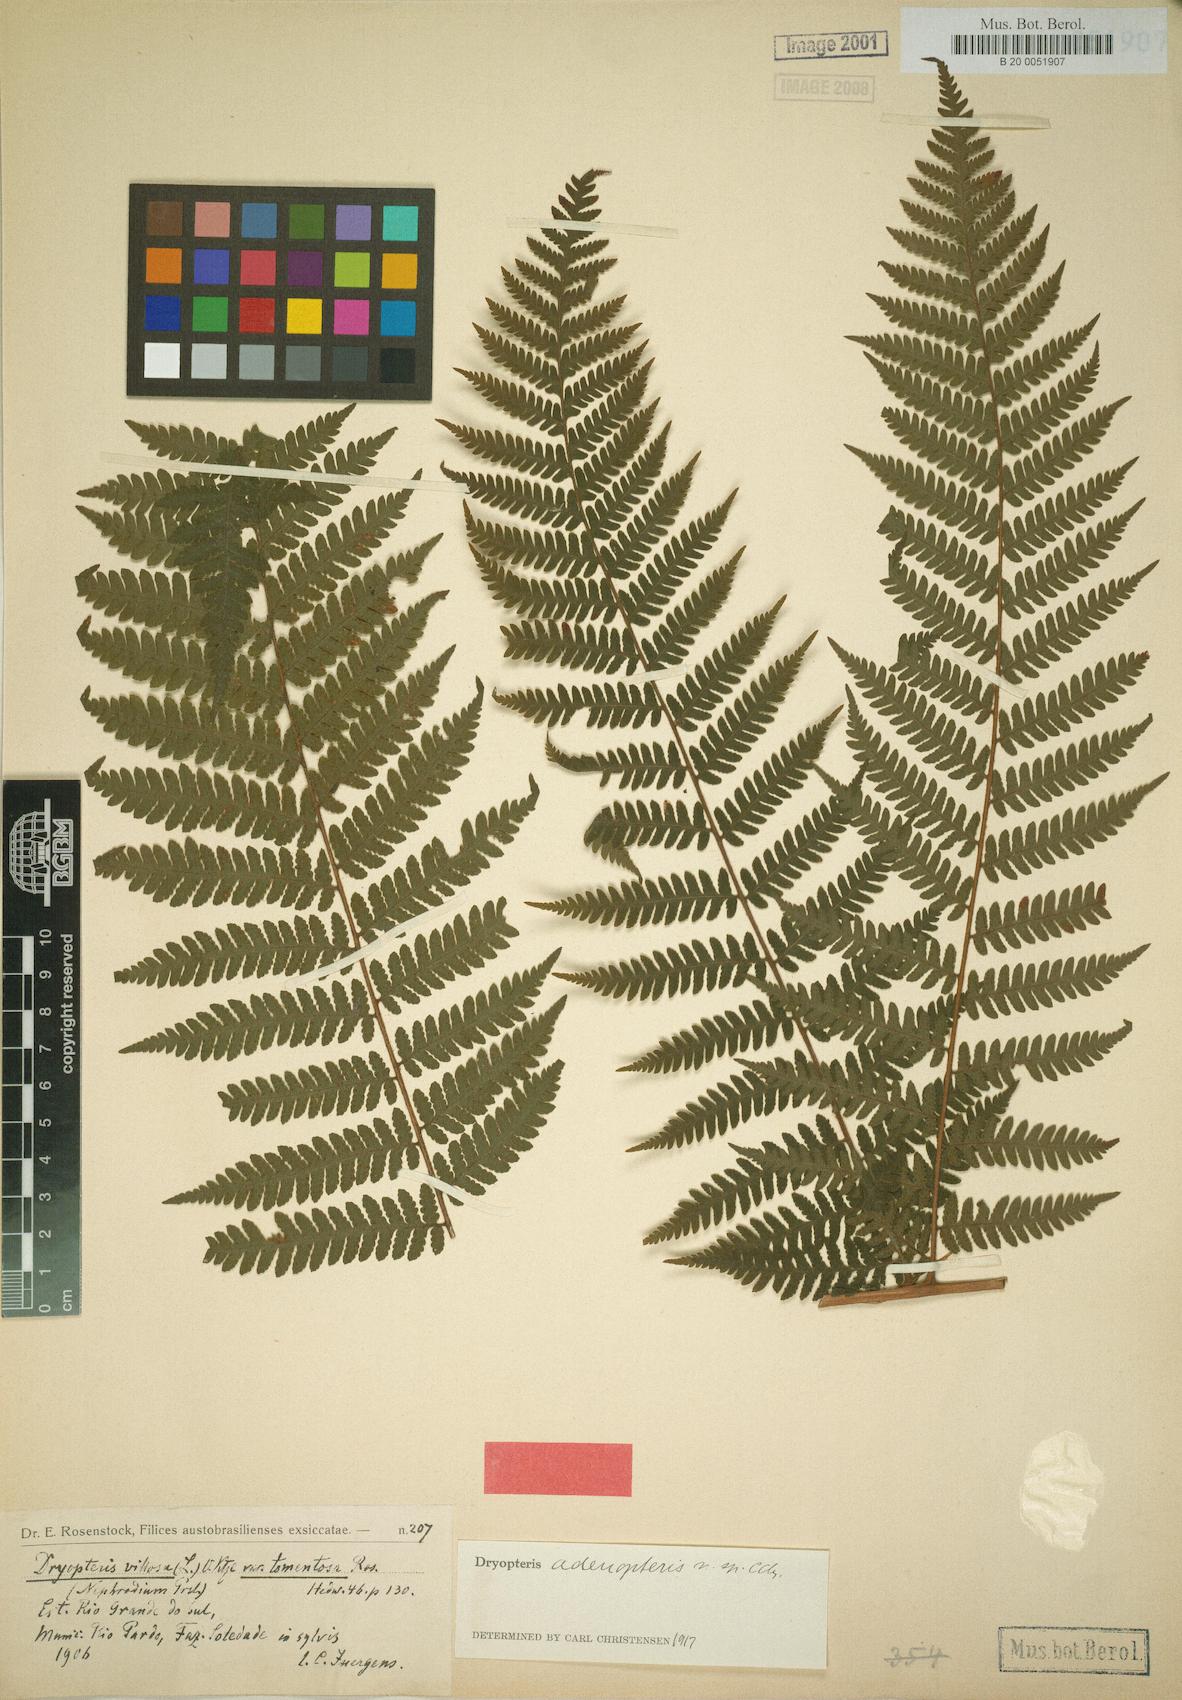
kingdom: Plantae
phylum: Tracheophyta
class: Polypodiopsida
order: Polypodiales
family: Dryopteridaceae
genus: Megalastrum
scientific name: Megalastrum adenopteris
